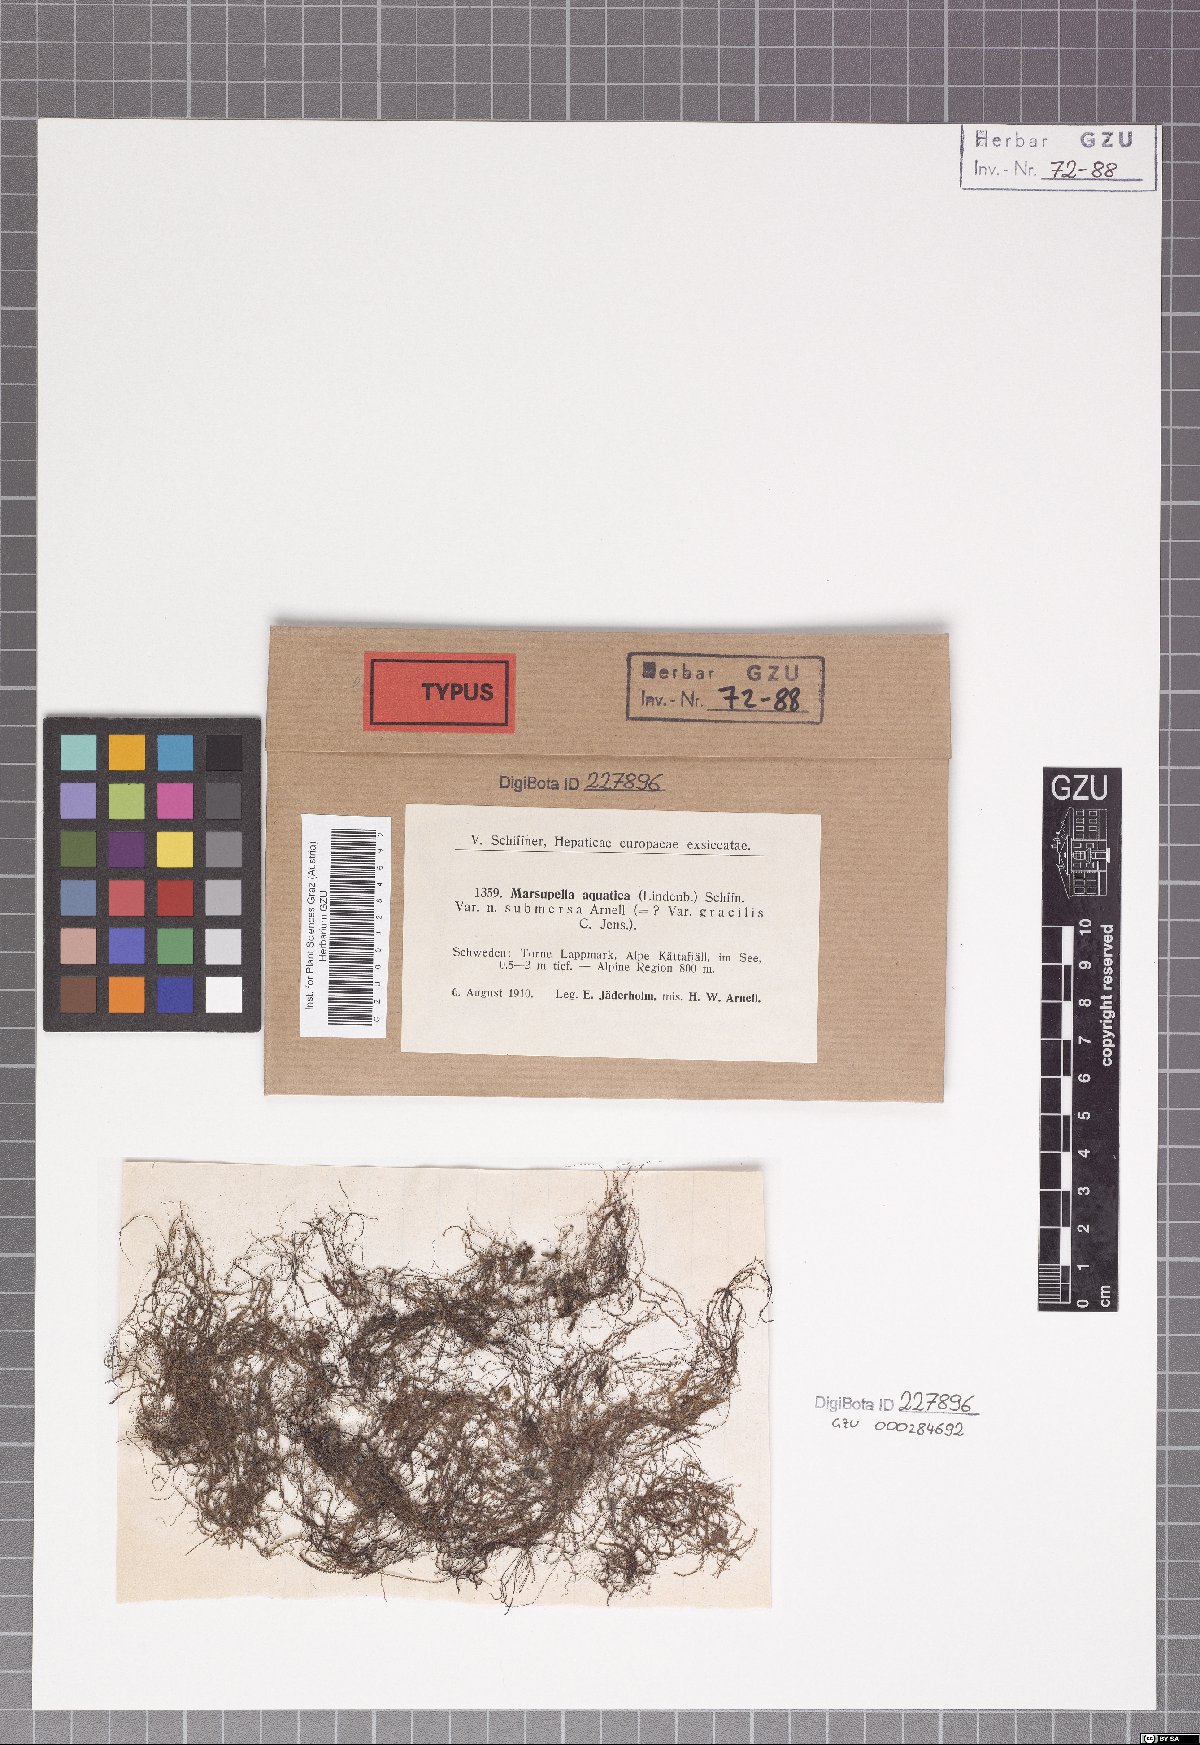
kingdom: Plantae
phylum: Marchantiophyta
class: Jungermanniopsida
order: Jungermanniales
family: Gymnomitriaceae
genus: Marsupella
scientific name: Marsupella aquatica
